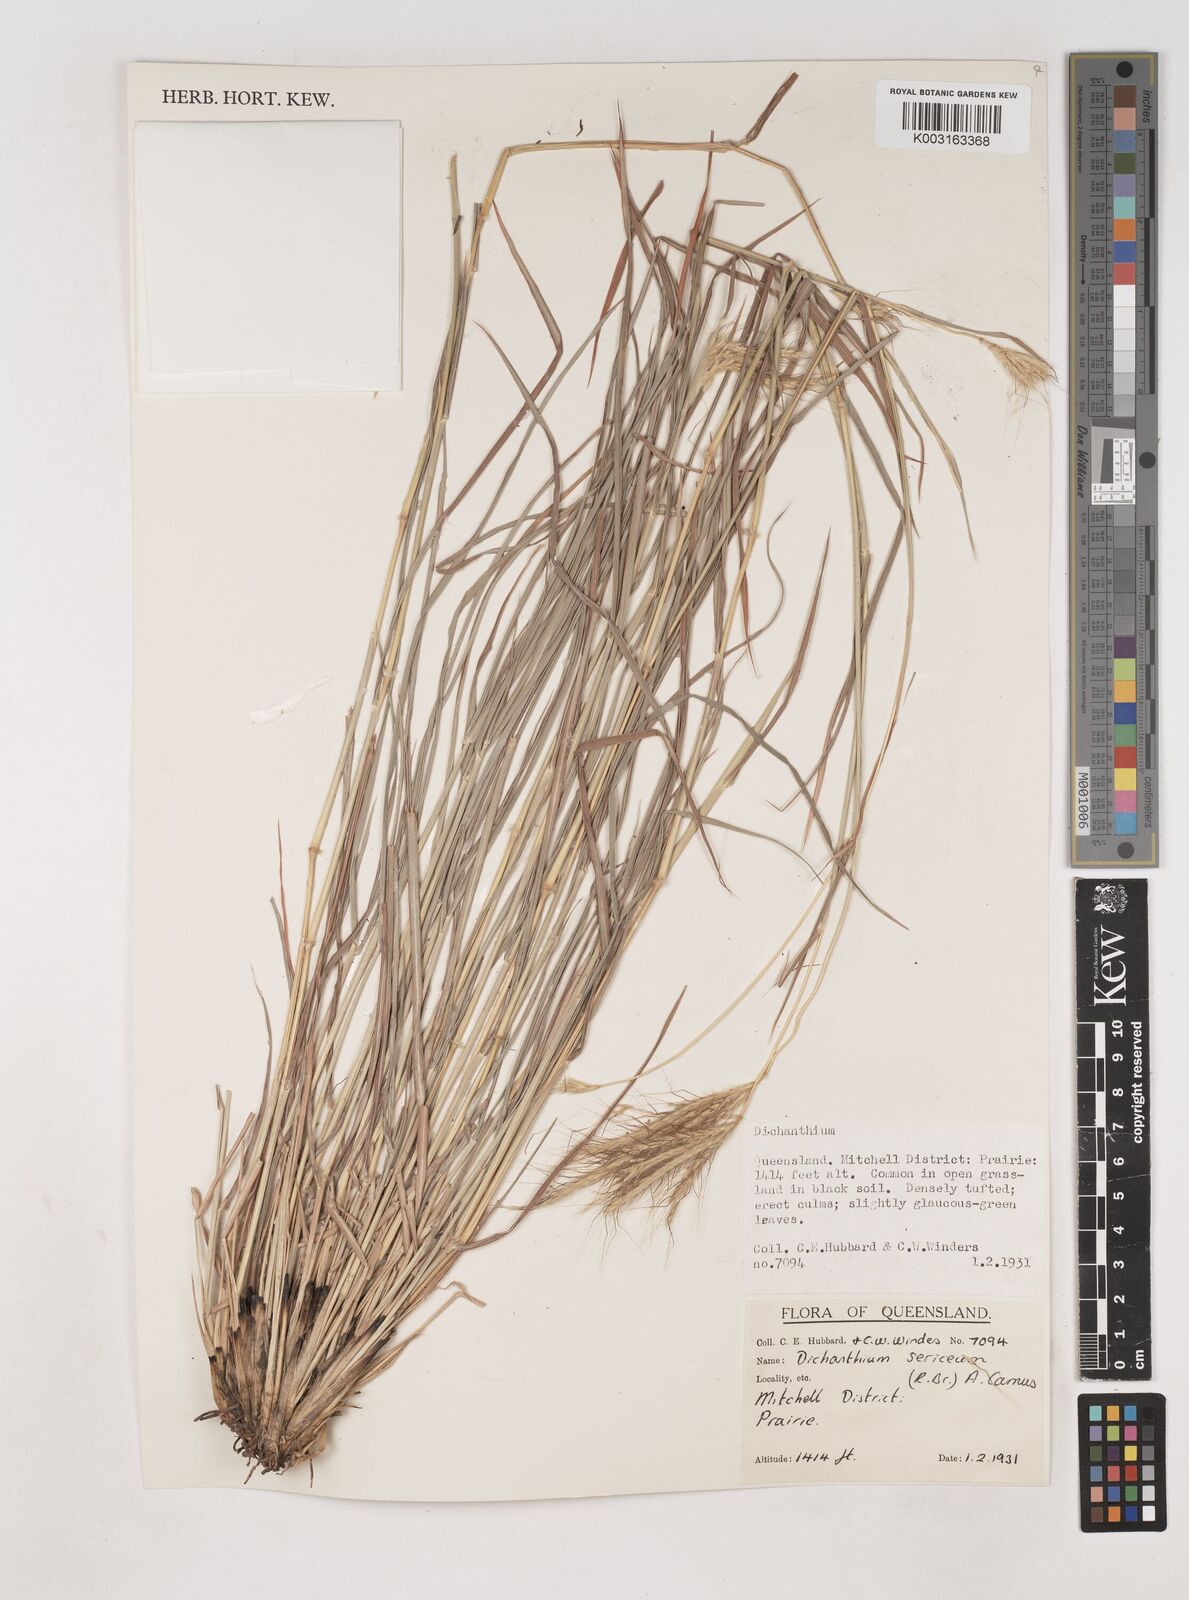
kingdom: Plantae
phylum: Tracheophyta
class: Liliopsida
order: Poales
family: Poaceae
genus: Dichanthium
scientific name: Dichanthium sericeum
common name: Silky bluestem
